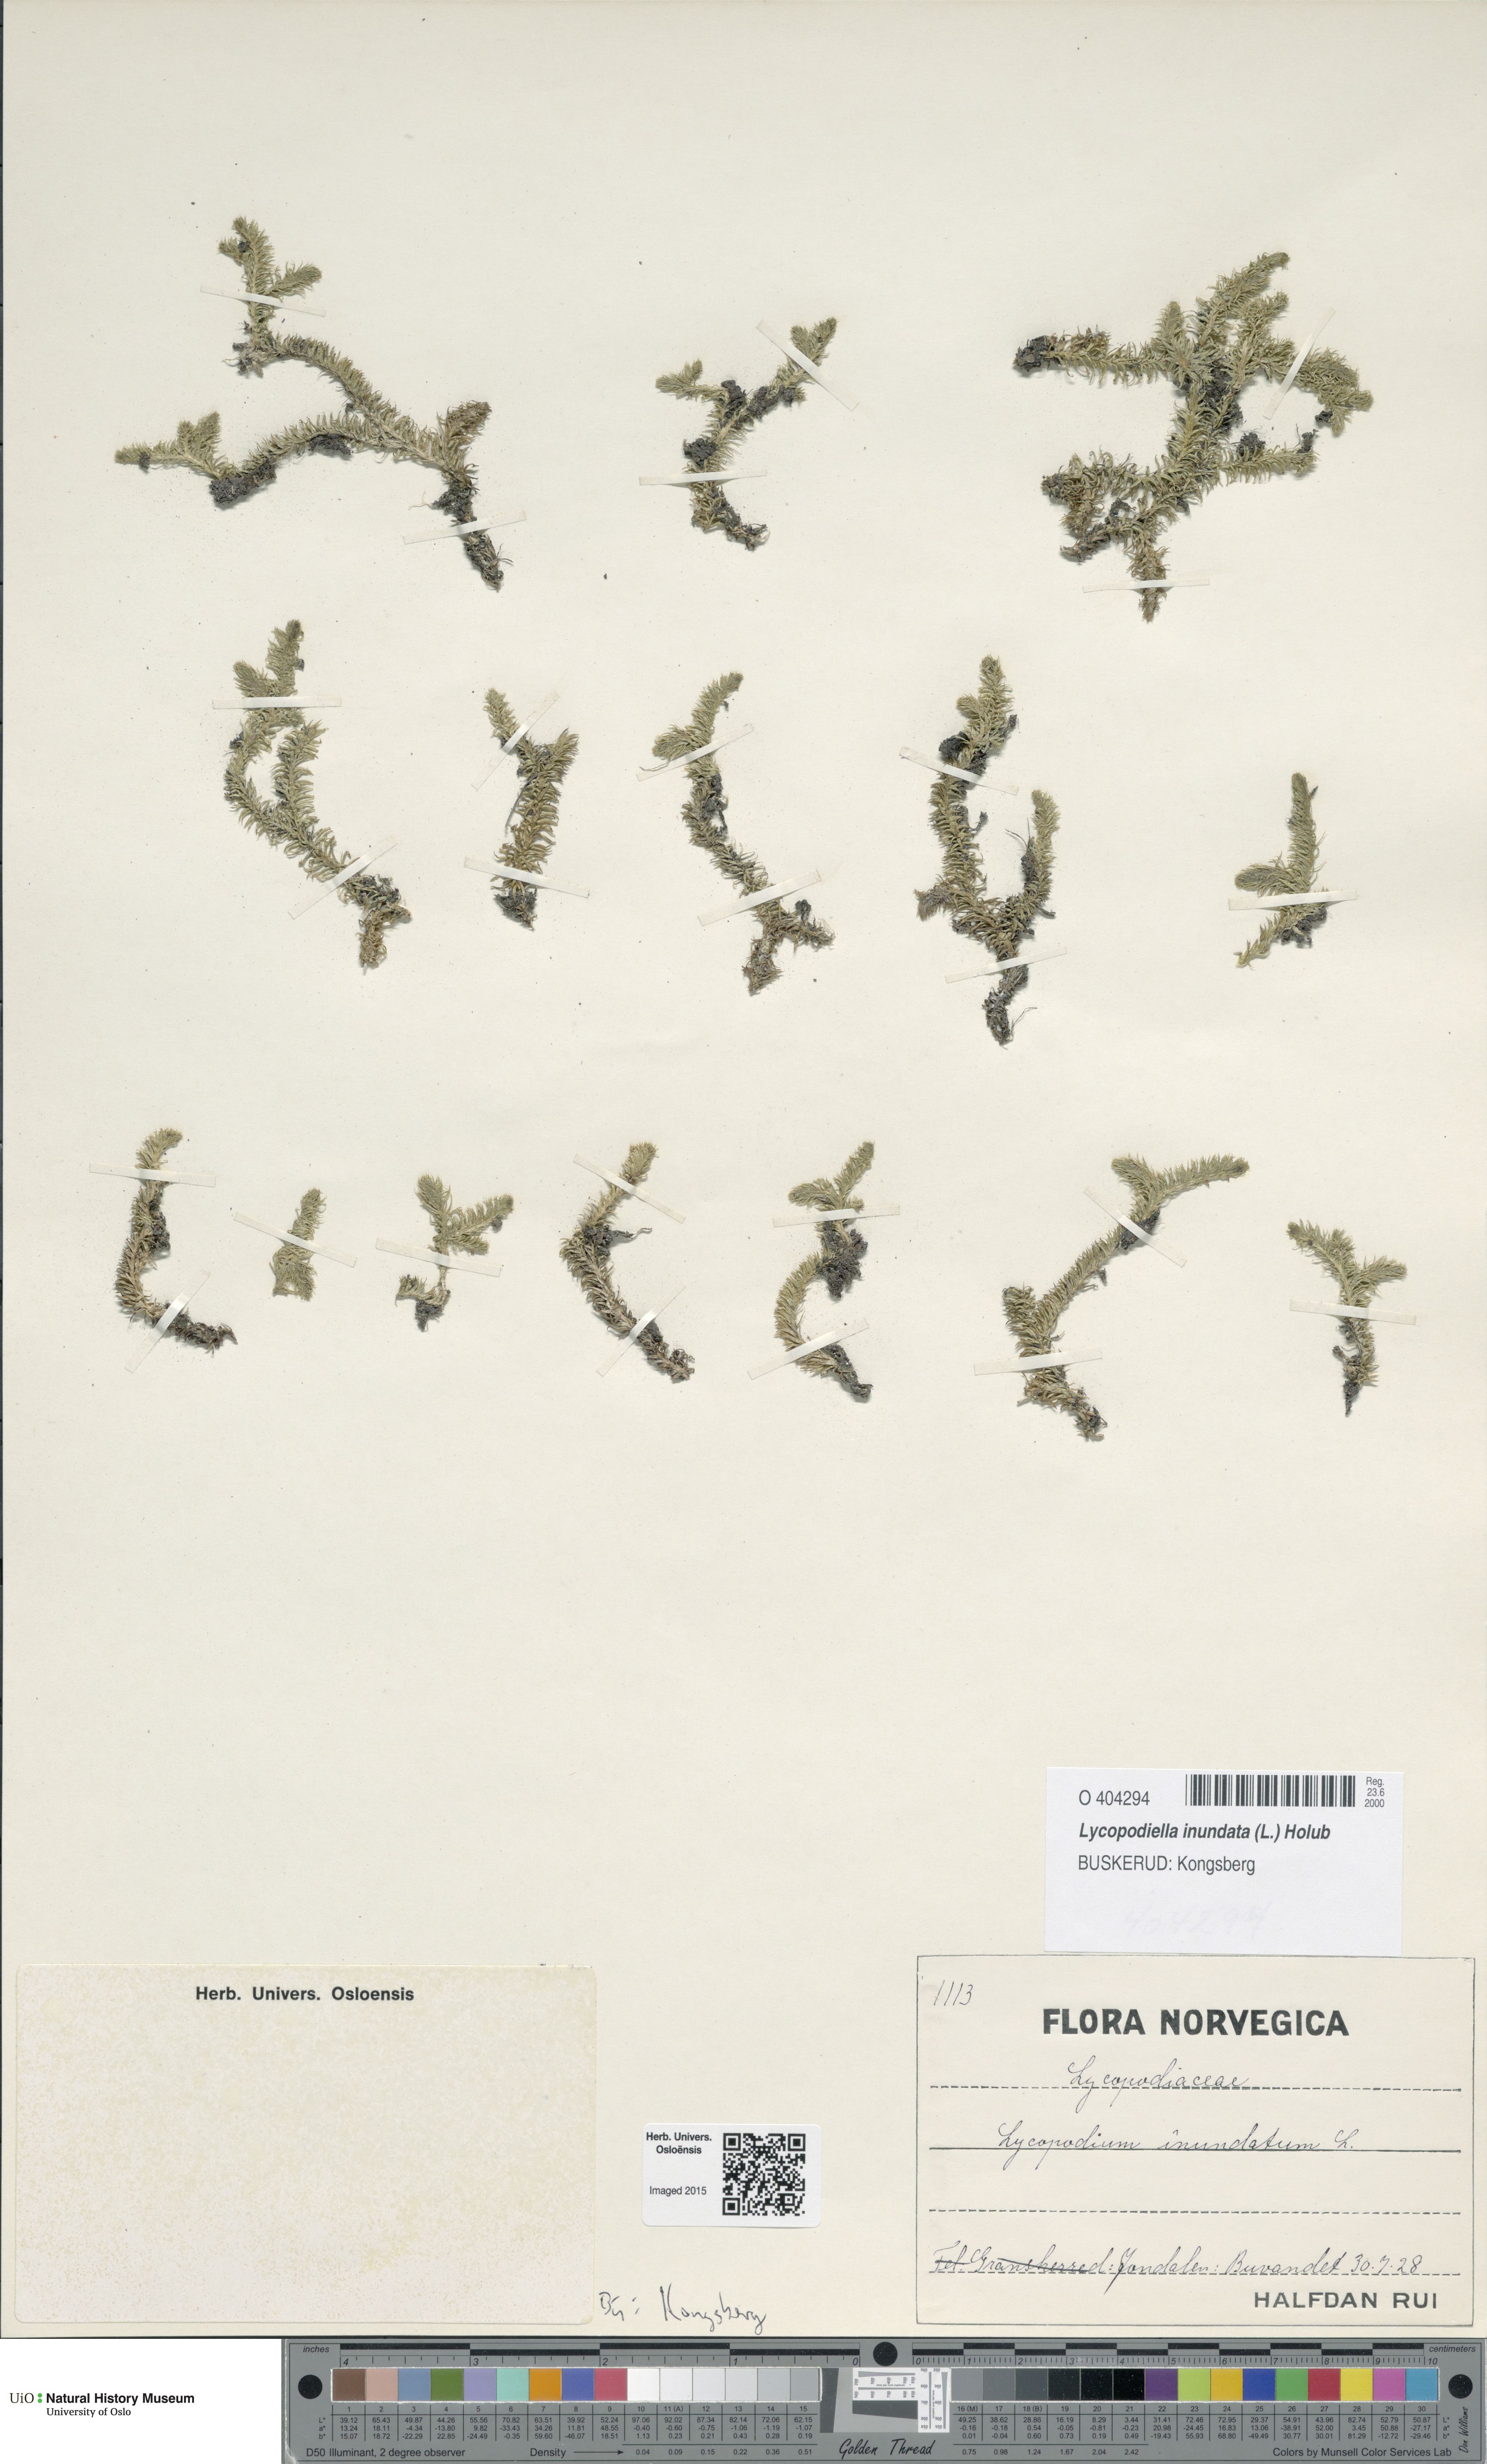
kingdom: Plantae
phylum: Tracheophyta
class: Lycopodiopsida
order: Lycopodiales
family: Lycopodiaceae
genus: Lycopodiella
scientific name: Lycopodiella inundata
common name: Marsh clubmoss
